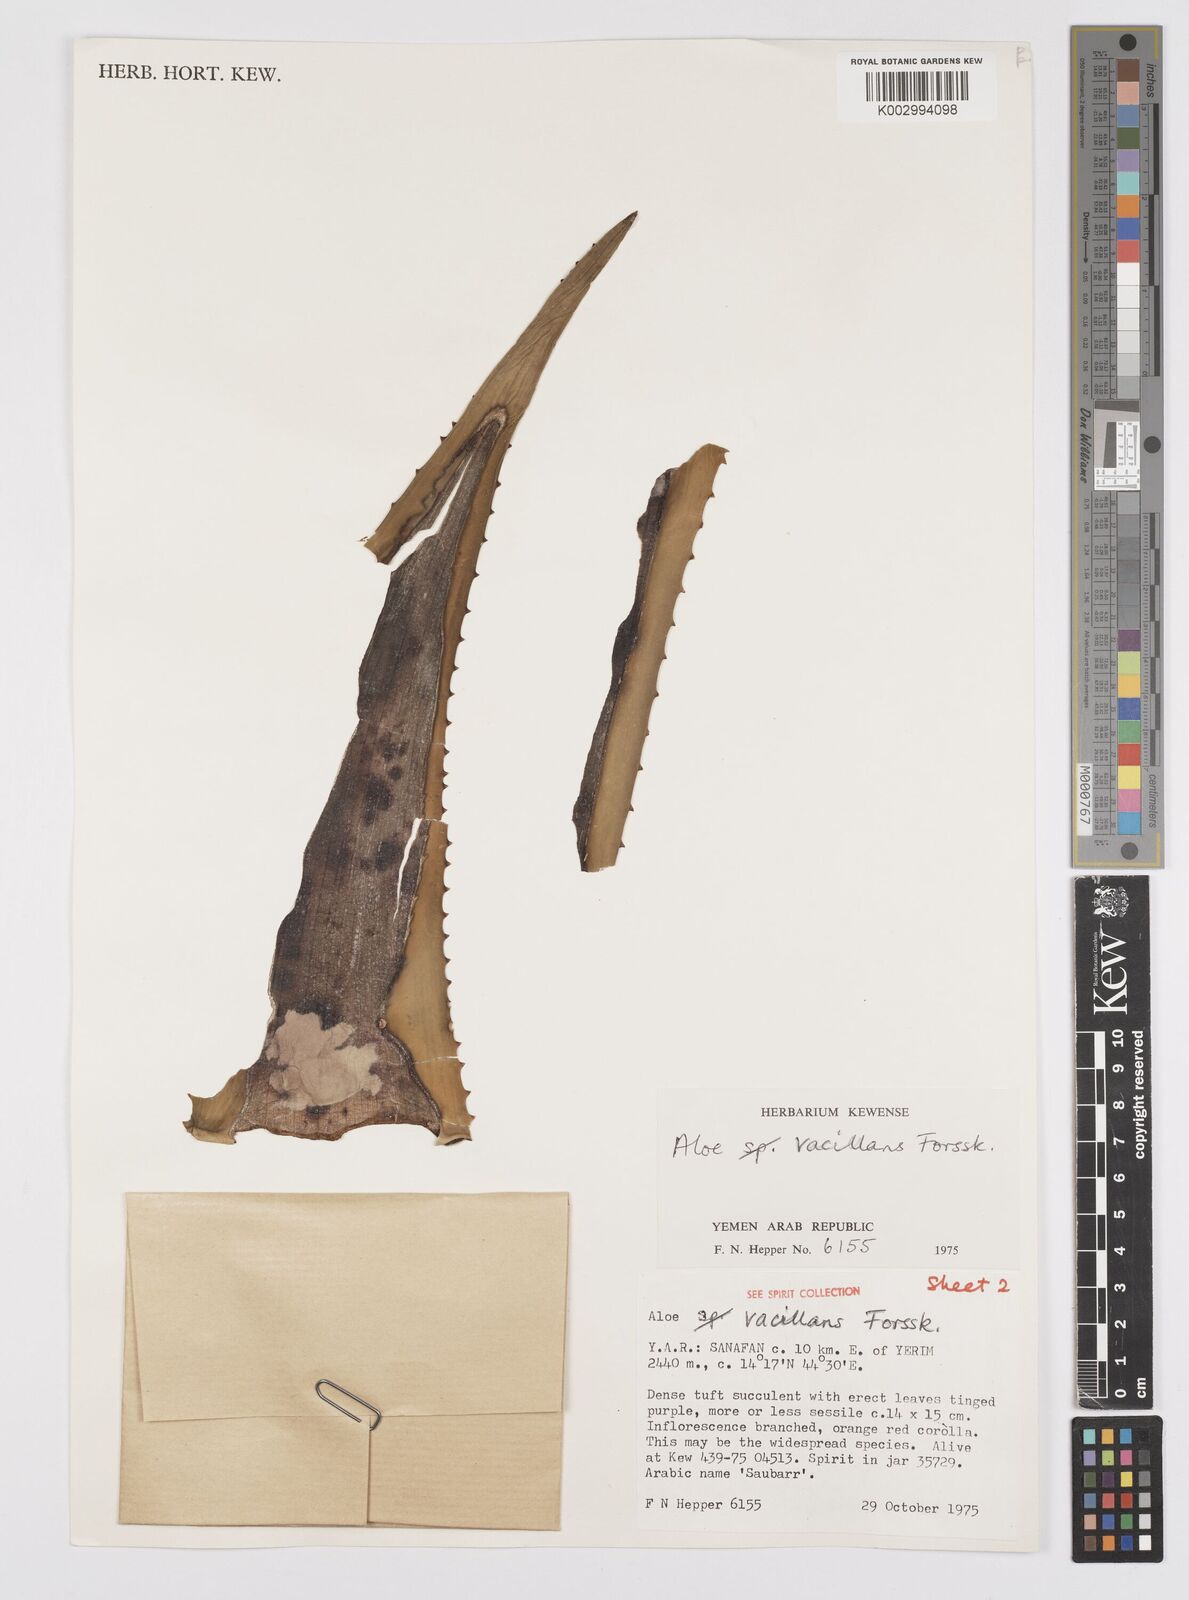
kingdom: Plantae
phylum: Tracheophyta
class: Liliopsida
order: Asparagales
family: Asphodelaceae
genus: Aloe
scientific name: Aloe vacillans
